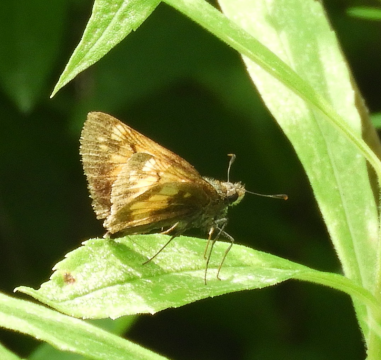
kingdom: Animalia
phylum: Arthropoda
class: Insecta
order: Lepidoptera
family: Hesperiidae
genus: Lon
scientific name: Lon hobomok
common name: Hobomok Skipper
